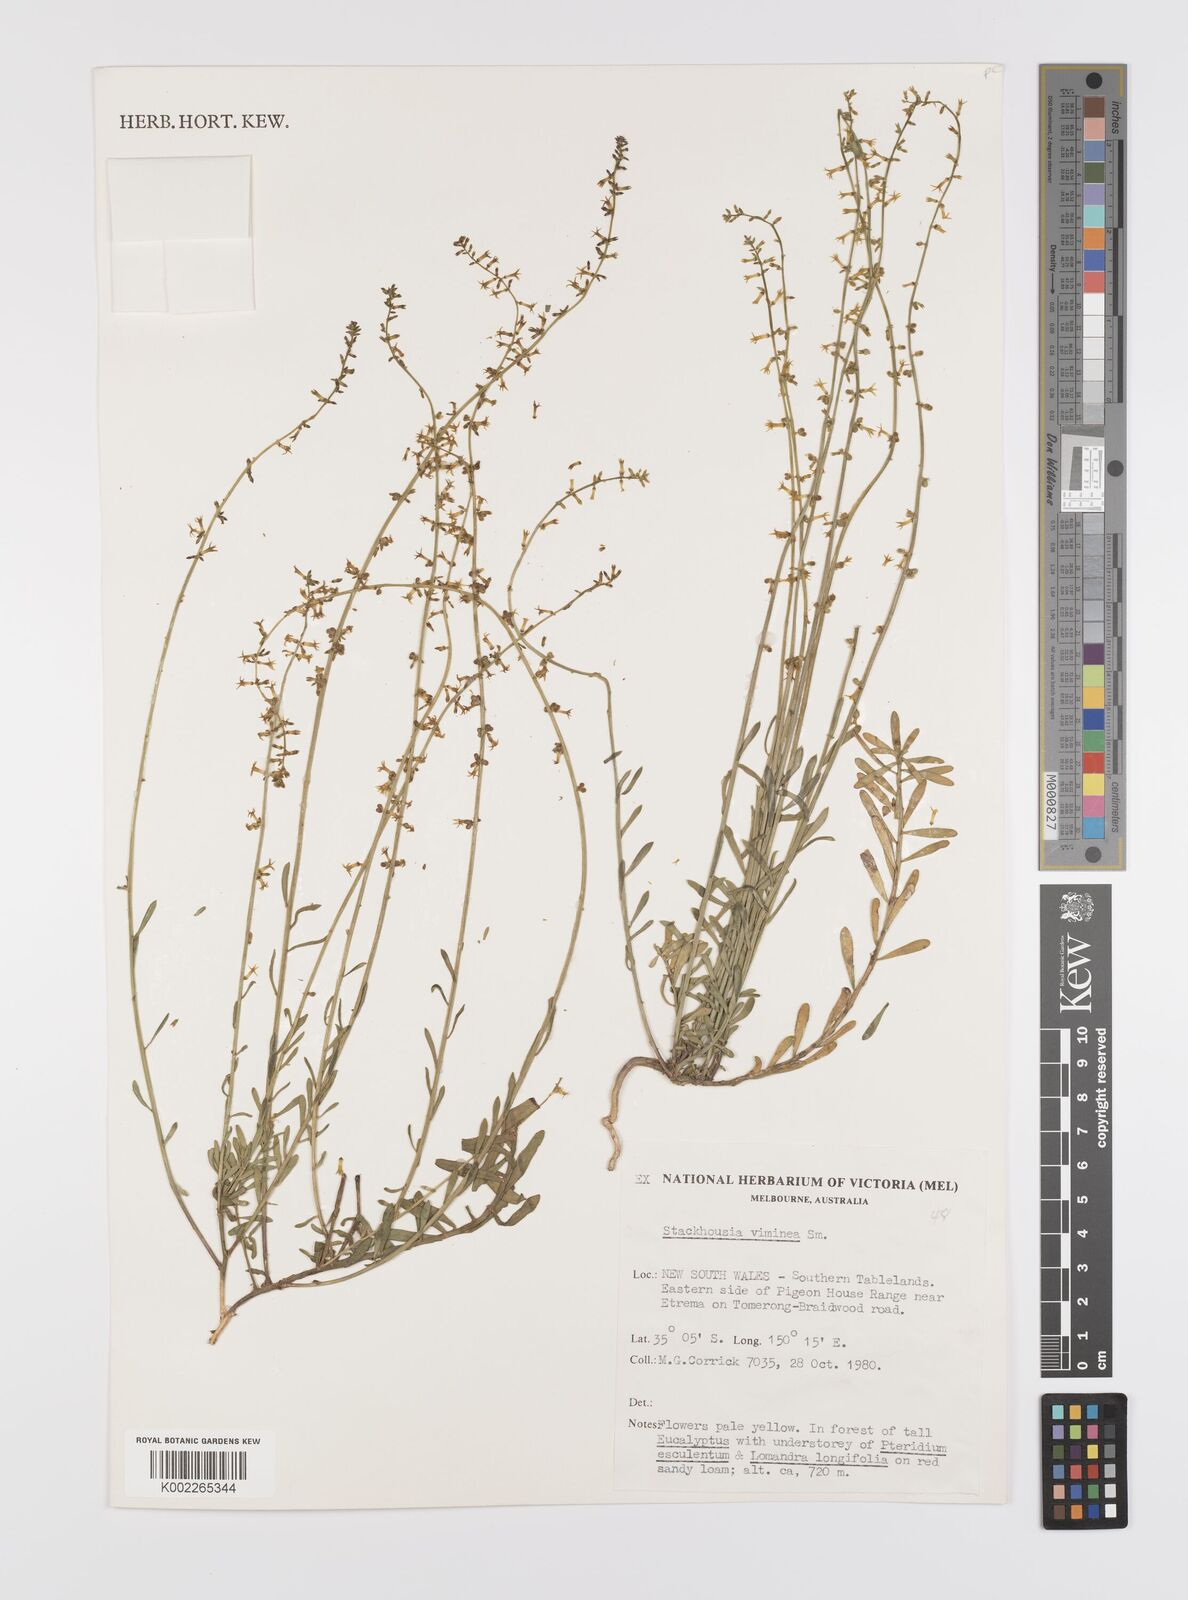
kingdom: Plantae
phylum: Tracheophyta
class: Magnoliopsida
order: Celastrales
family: Celastraceae
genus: Stackhousia
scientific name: Stackhousia viminea
